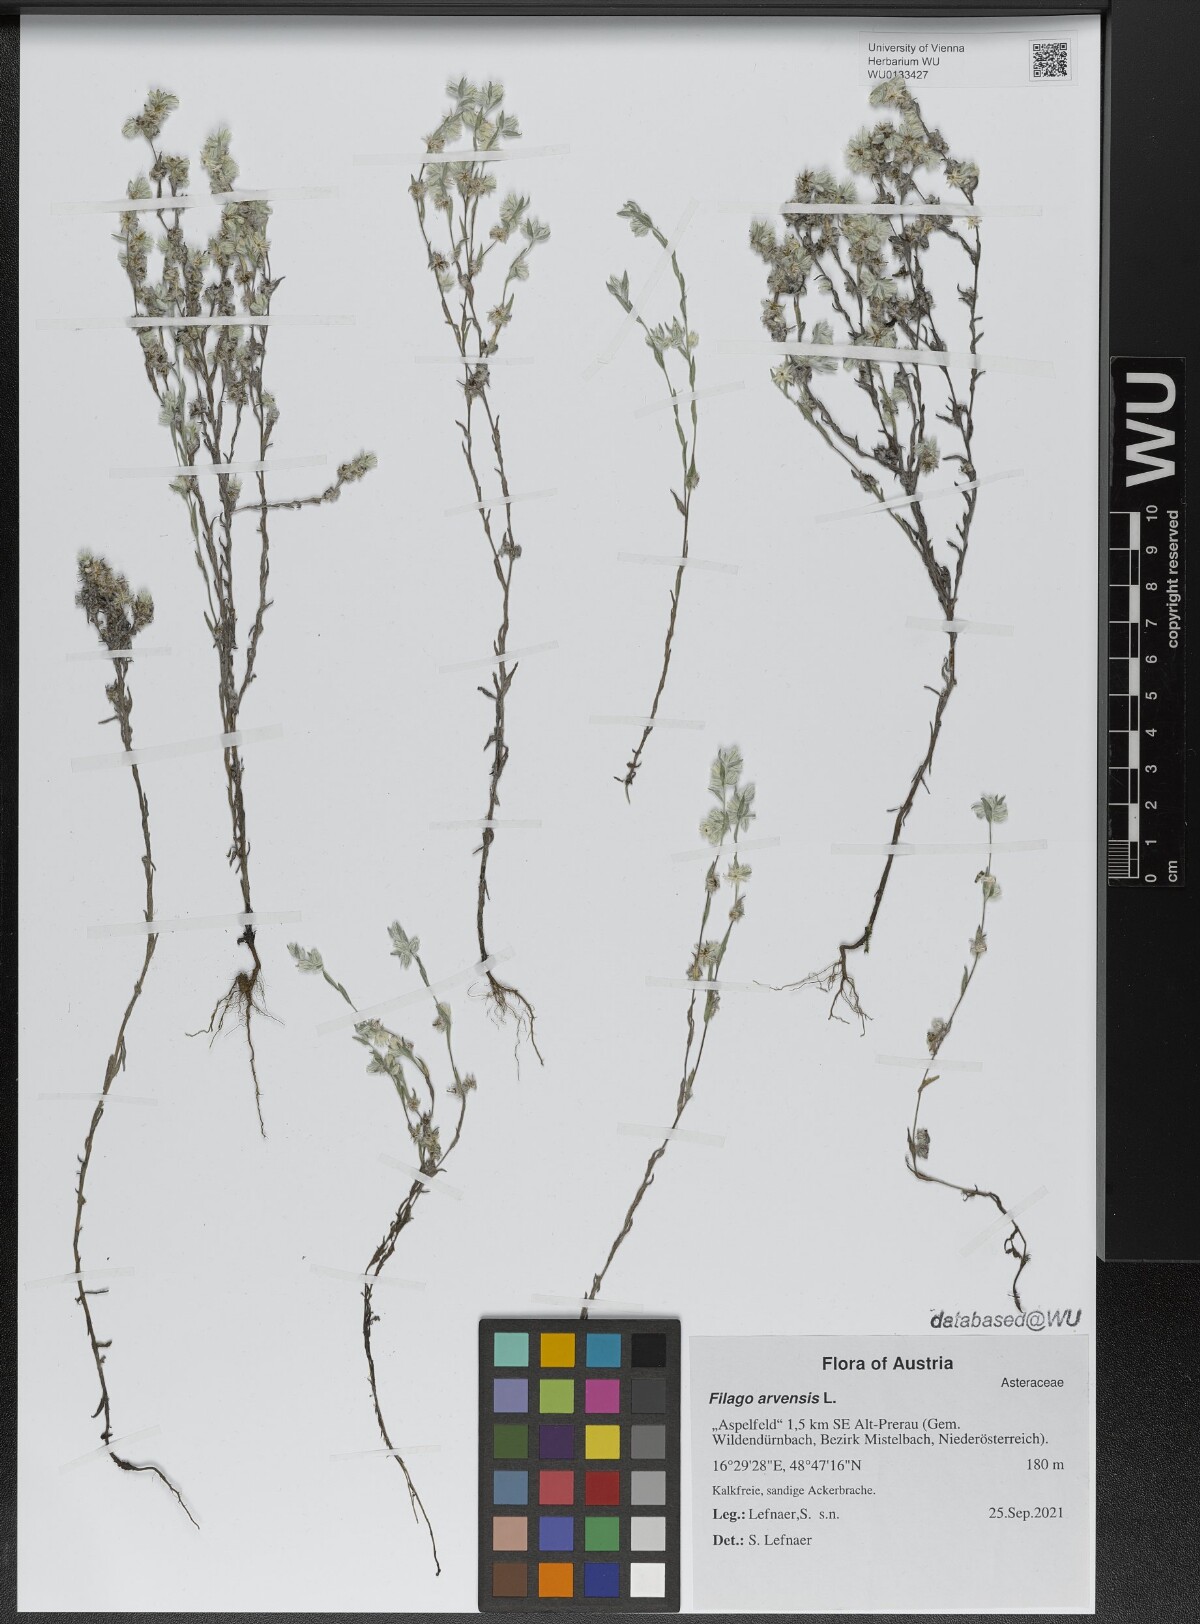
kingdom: Plantae
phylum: Tracheophyta
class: Magnoliopsida
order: Asterales
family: Asteraceae
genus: Filago
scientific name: Filago arvensis
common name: Field cudweed
